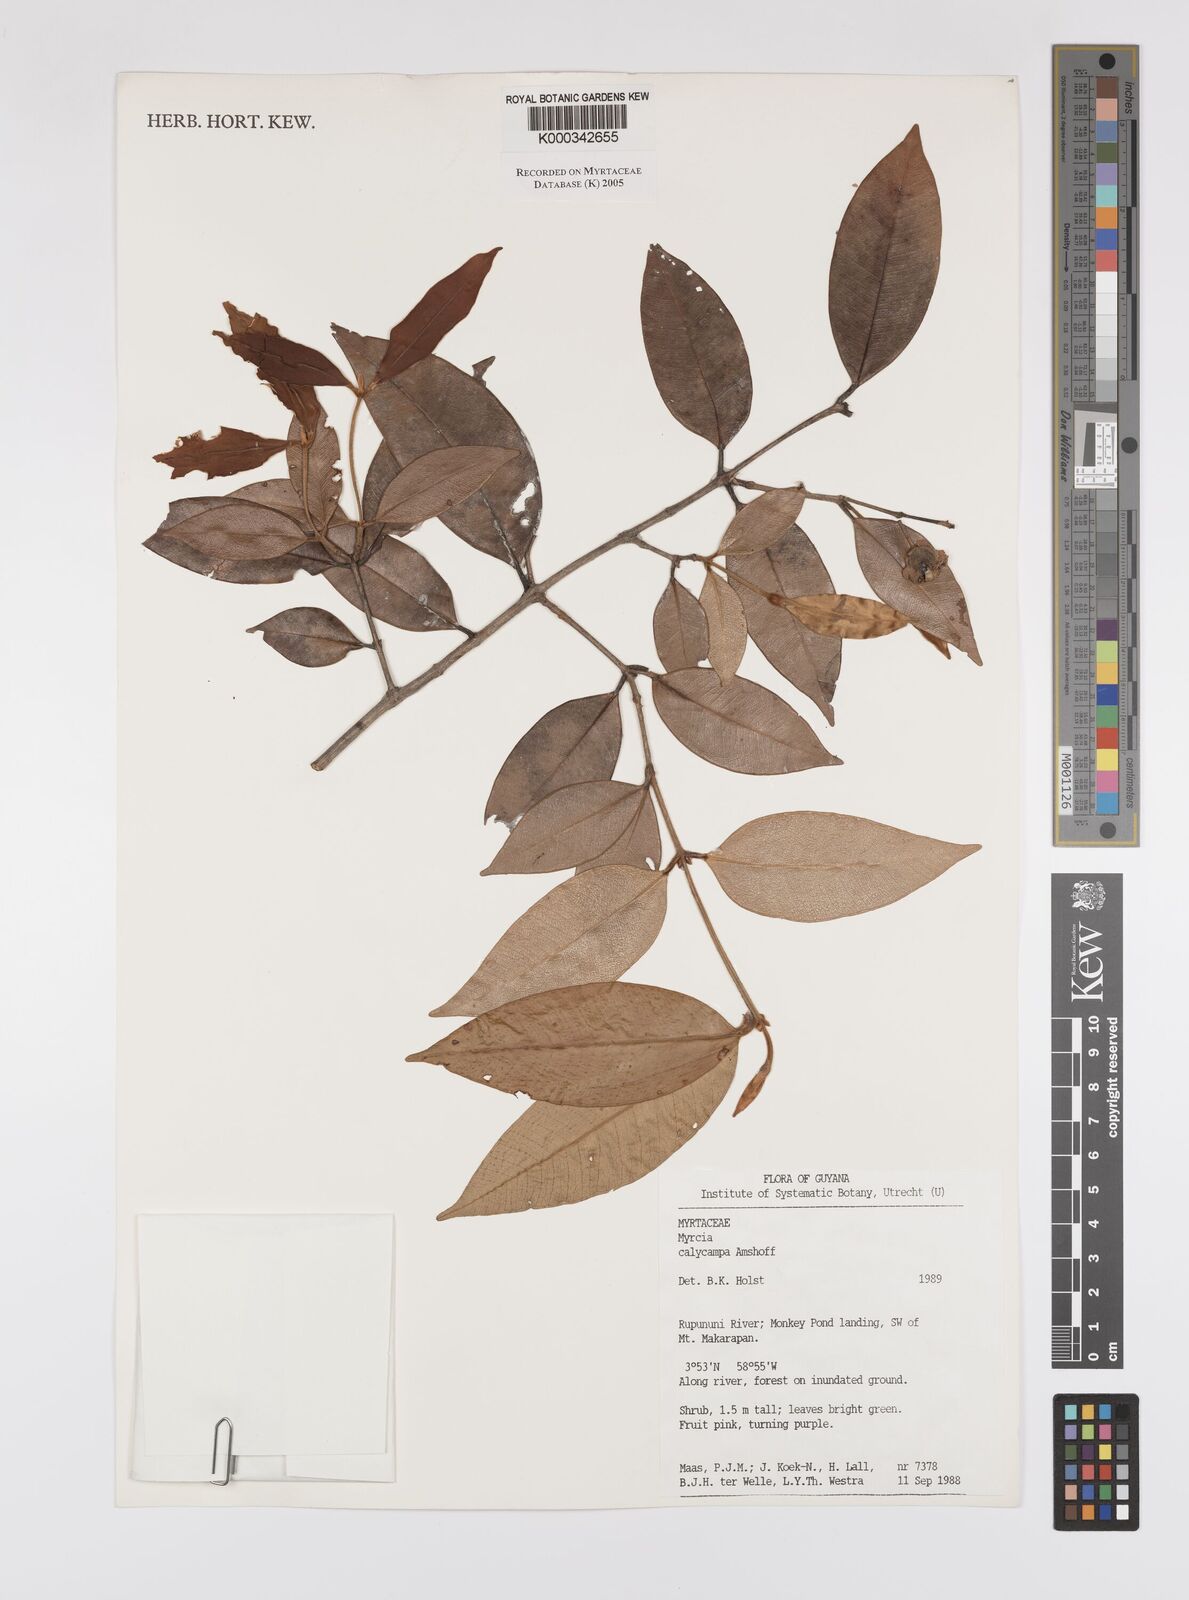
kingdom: Plantae
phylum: Tracheophyta
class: Magnoliopsida
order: Myrtales
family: Myrtaceae
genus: Myrcia
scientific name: Myrcia calycampa
